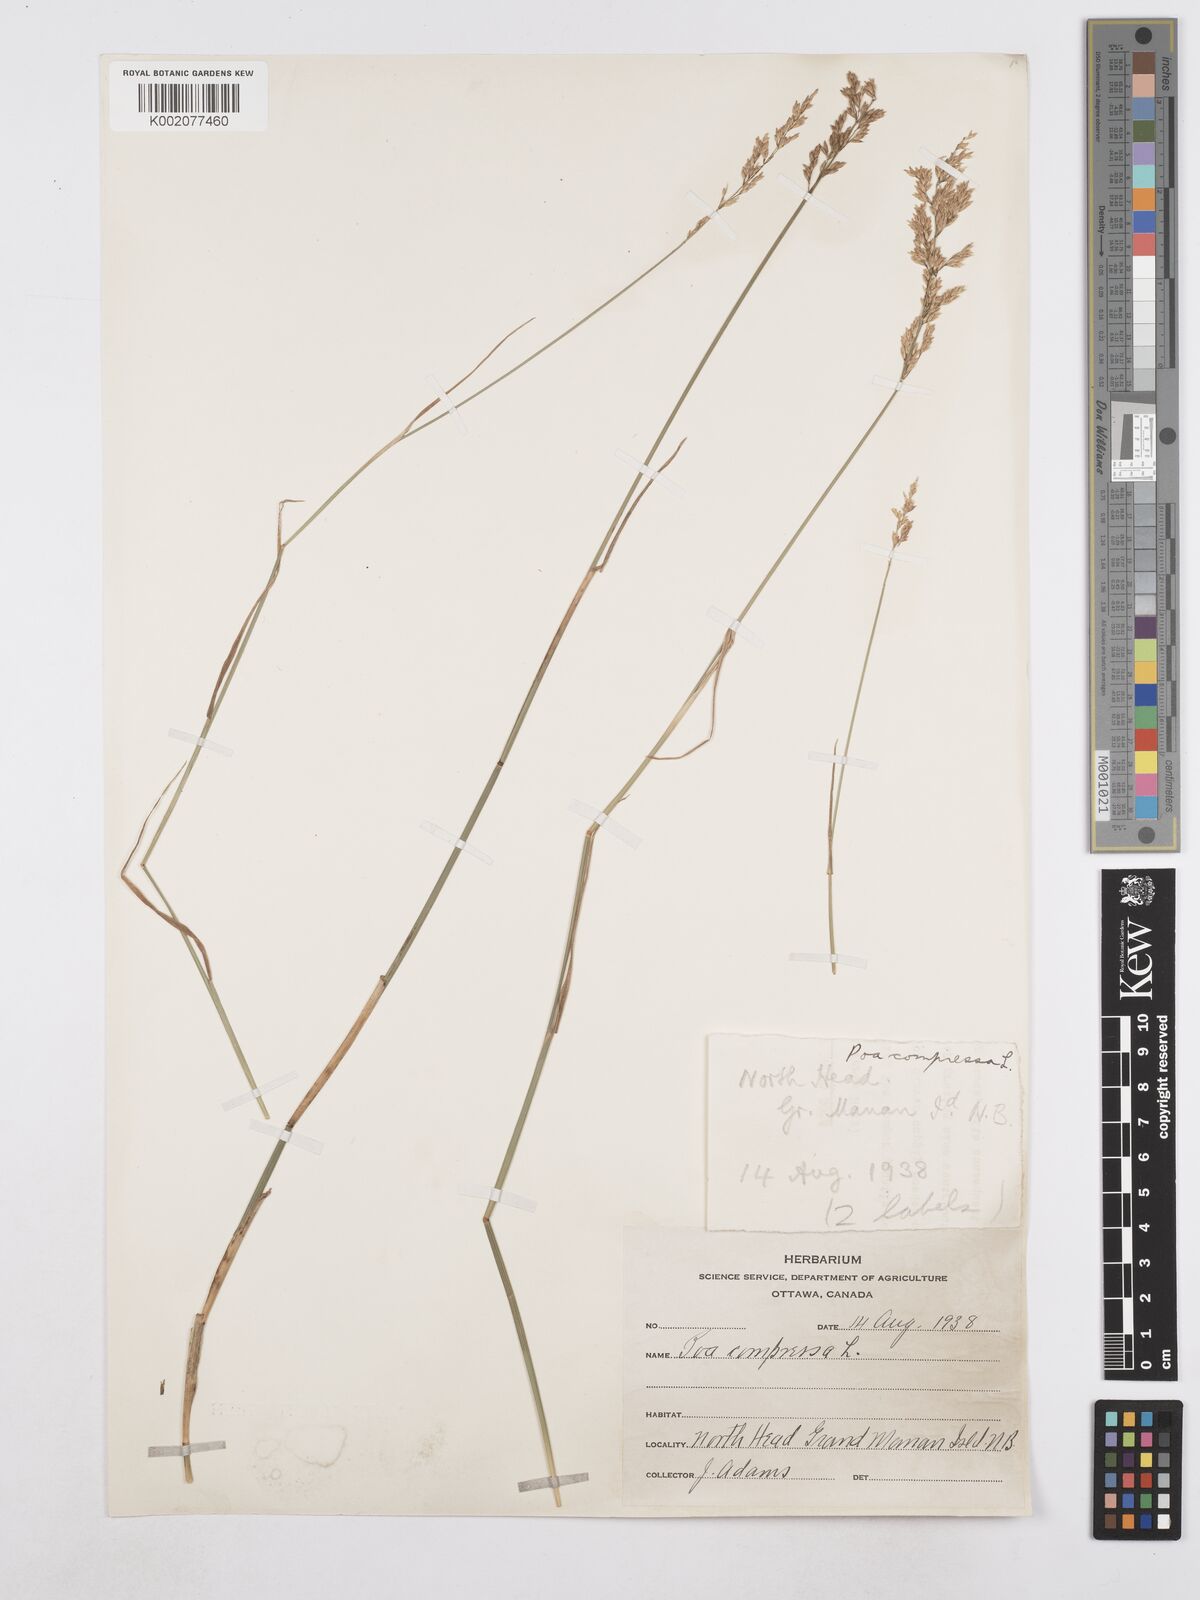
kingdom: Plantae
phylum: Tracheophyta
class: Liliopsida
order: Poales
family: Poaceae
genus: Poa
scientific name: Poa compressa
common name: Canada bluegrass
